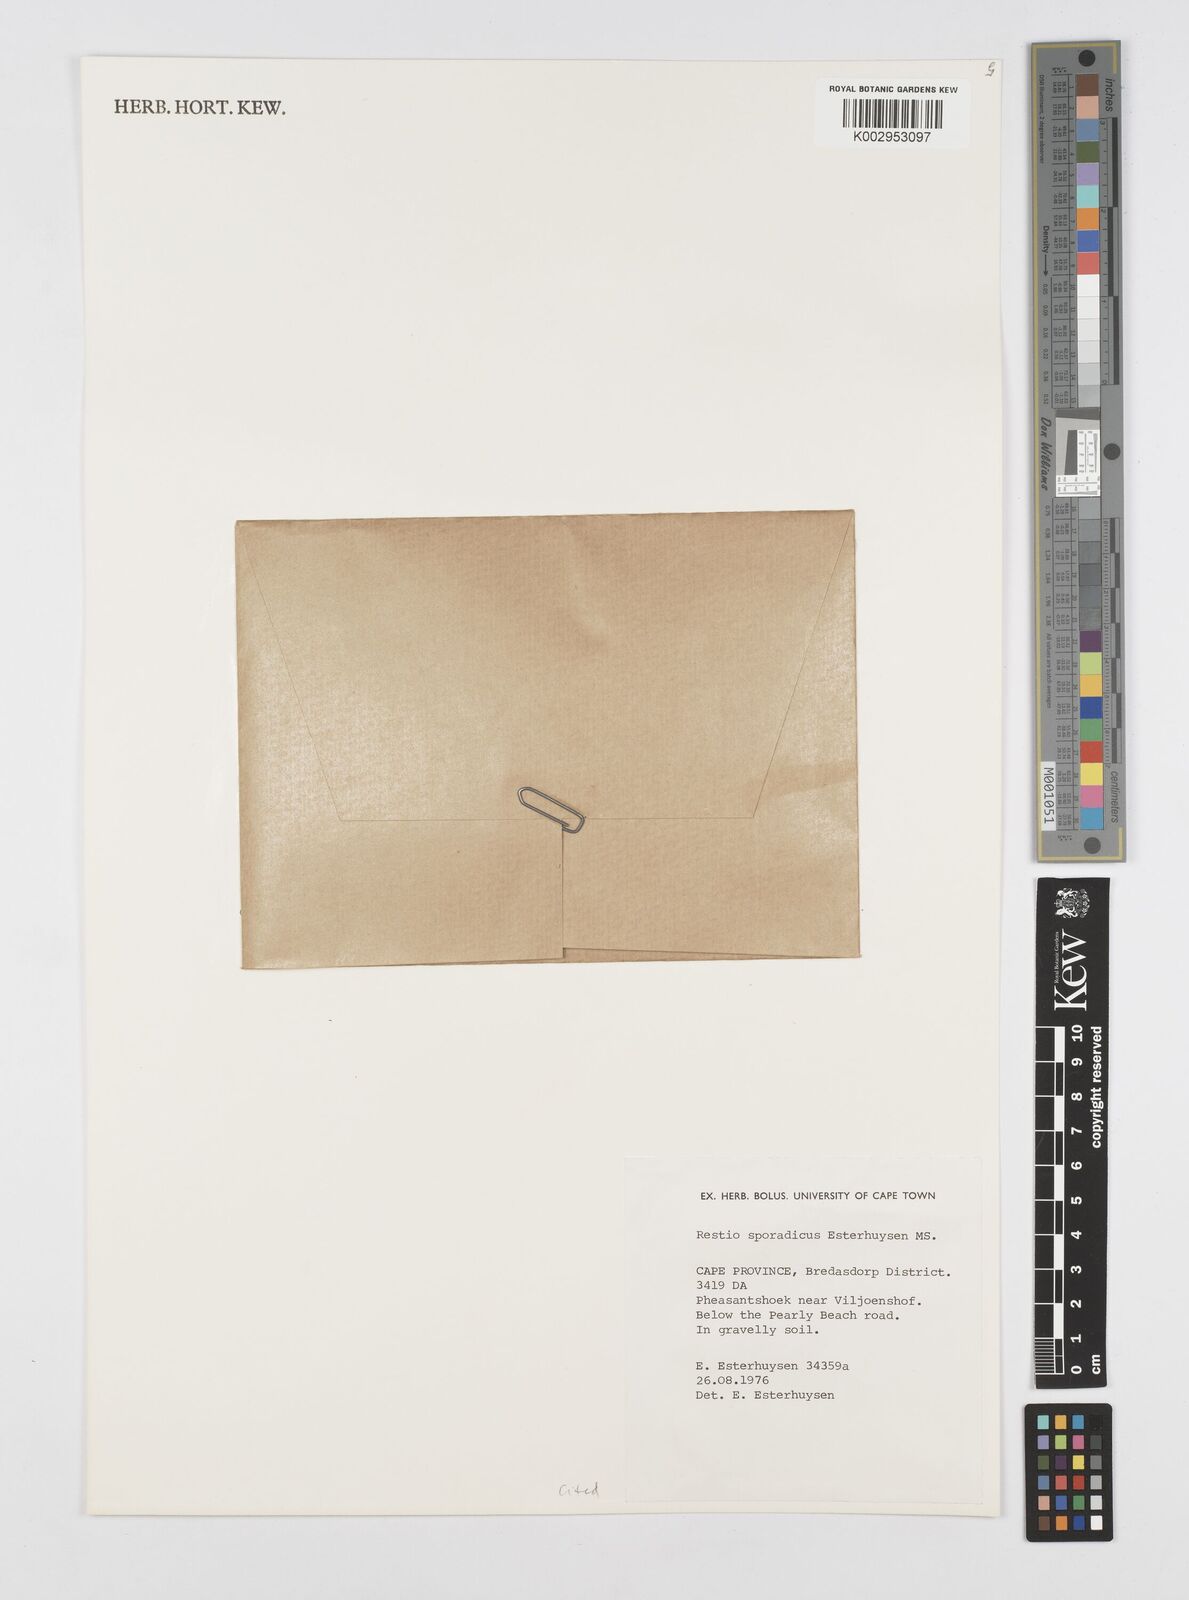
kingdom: Plantae
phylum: Tracheophyta
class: Liliopsida
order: Poales
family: Restionaceae
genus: Restio
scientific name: Restio sporadicus
